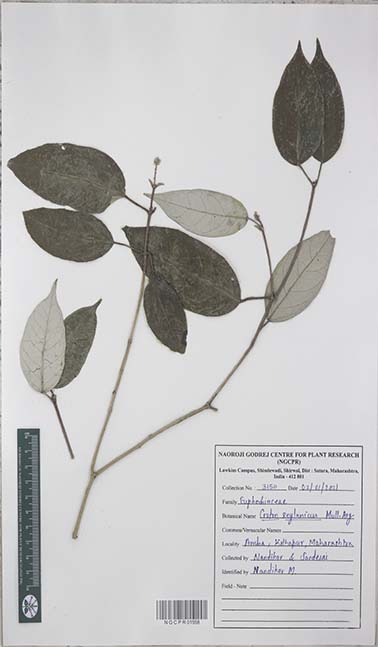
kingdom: Plantae
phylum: Tracheophyta
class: Magnoliopsida
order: Malpighiales
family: Euphorbiaceae
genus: Croton
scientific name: Croton zeylanicus
